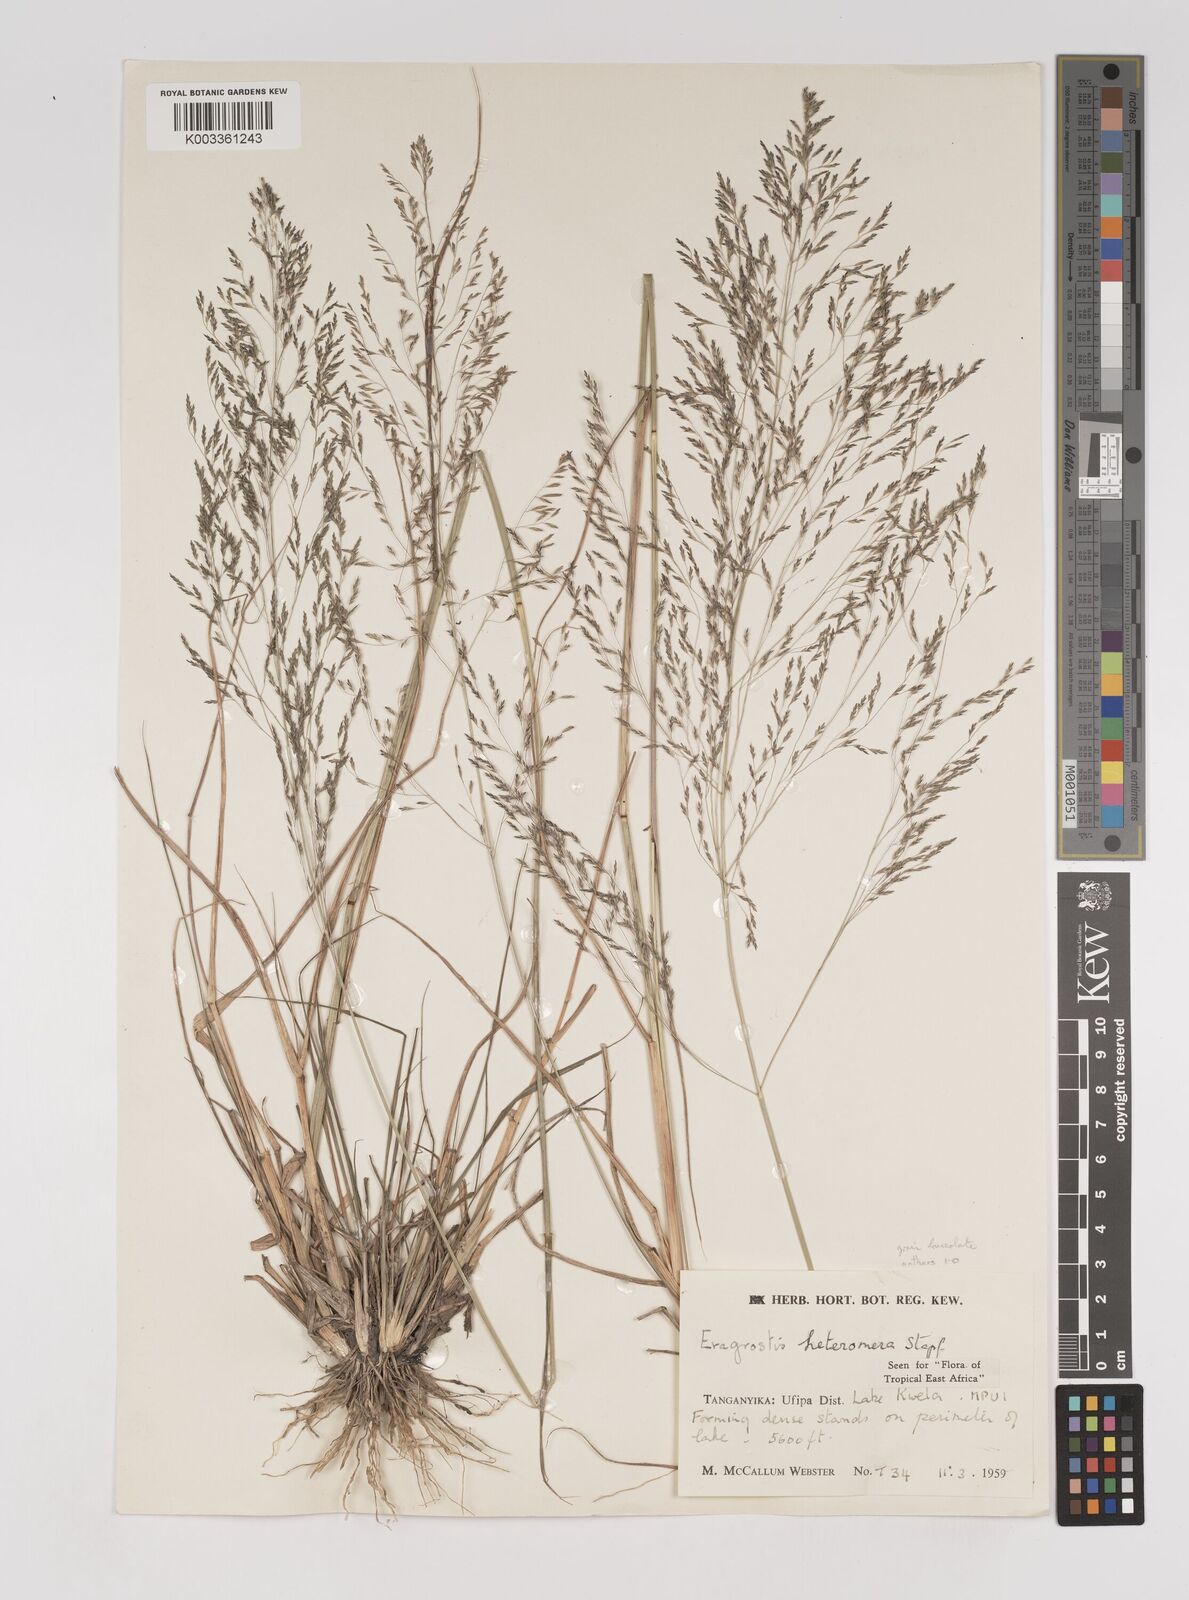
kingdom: Plantae
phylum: Tracheophyta
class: Liliopsida
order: Poales
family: Poaceae
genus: Eragrostis
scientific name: Eragrostis heteromera
